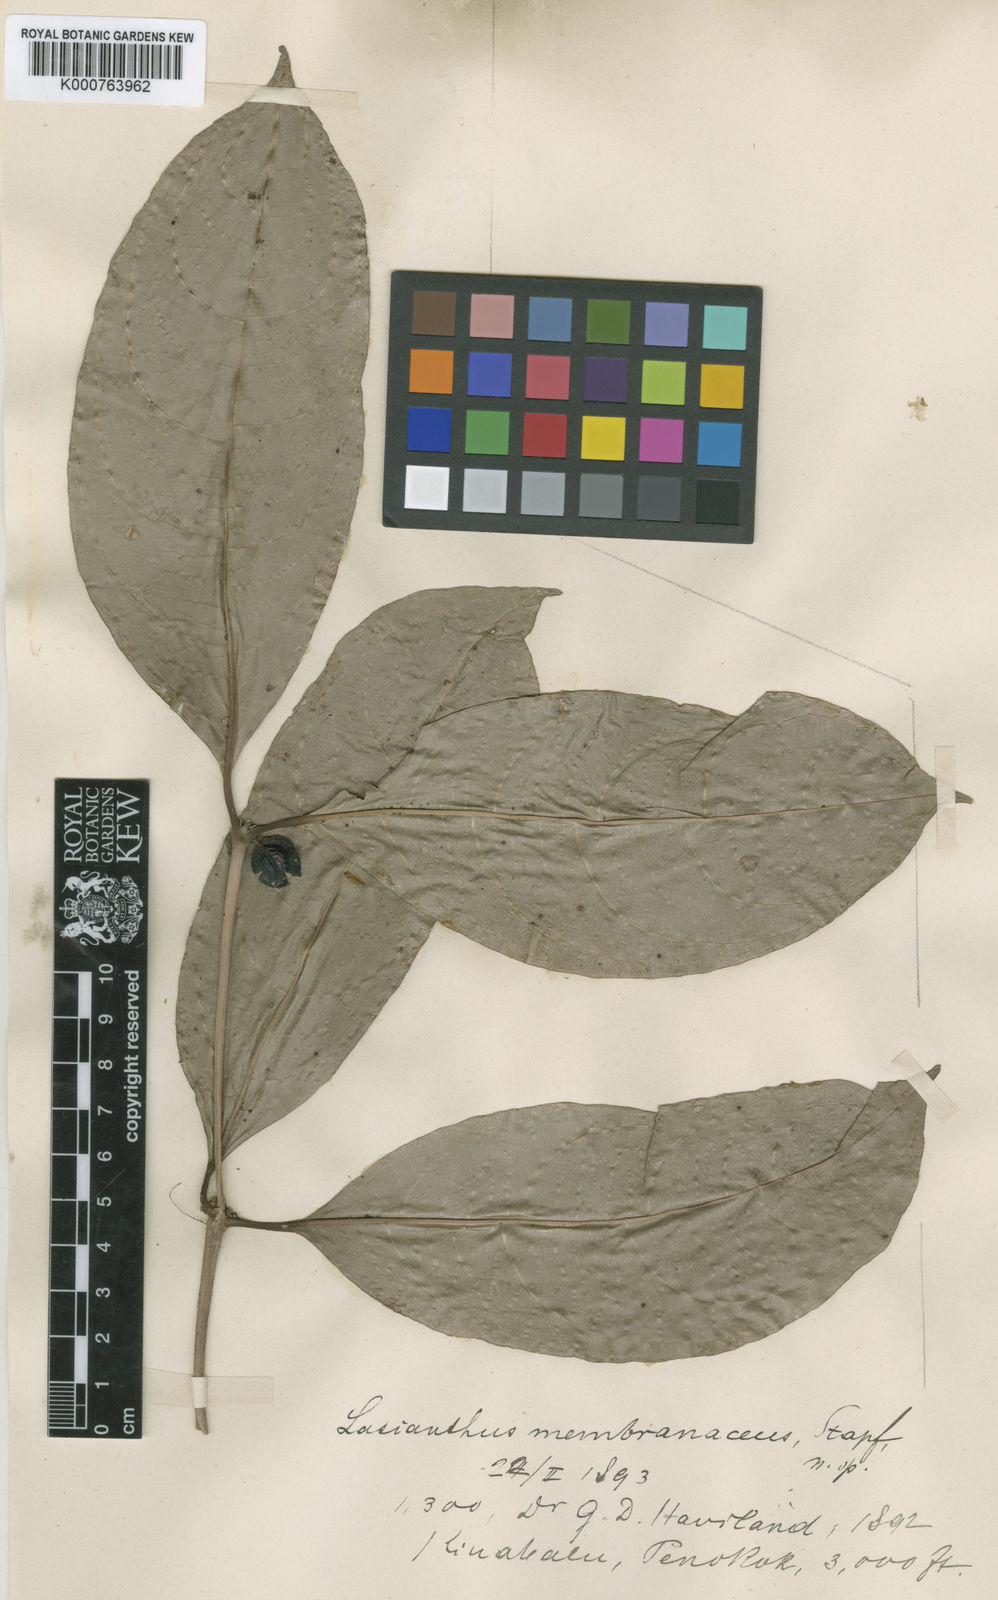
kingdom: Plantae
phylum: Tracheophyta
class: Magnoliopsida
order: Gentianales
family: Rubiaceae
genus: Lasianthus
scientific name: Lasianthus membranaceus
